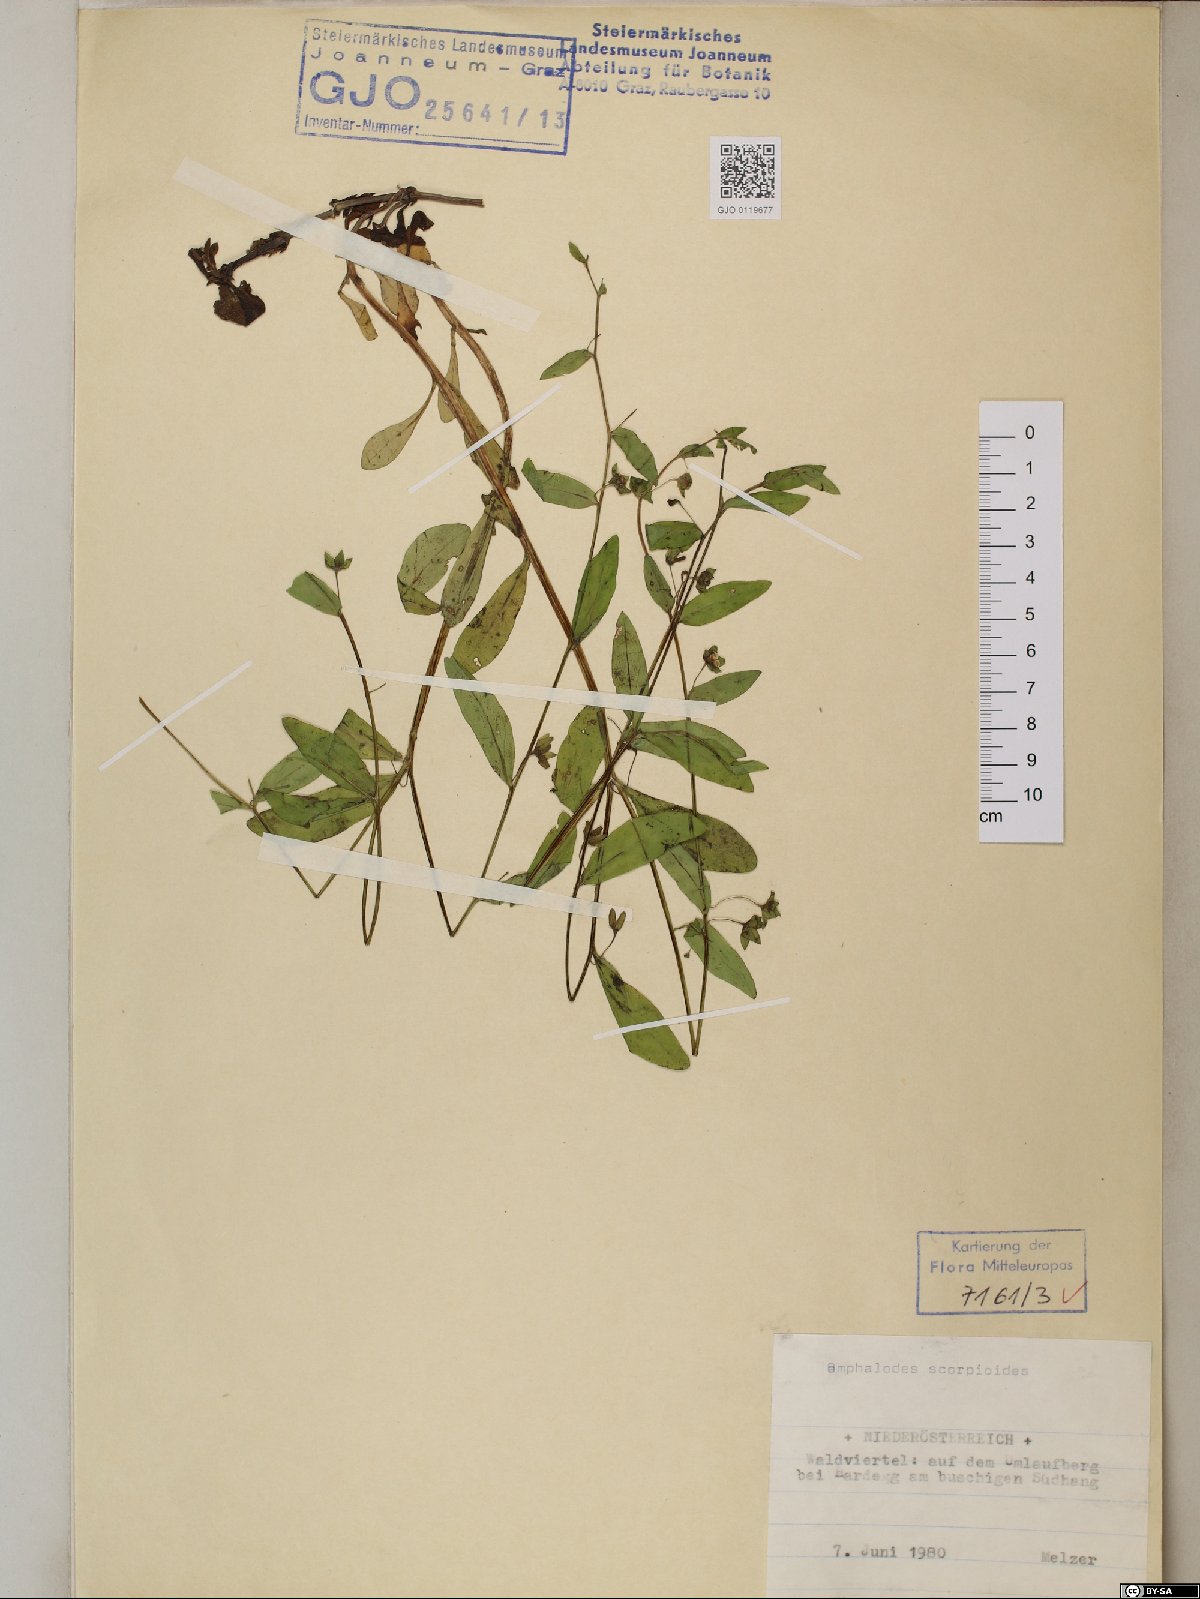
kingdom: Plantae
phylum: Tracheophyta
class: Magnoliopsida
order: Boraginales
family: Boraginaceae
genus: Memoremea
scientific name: Memoremea scorpioides
